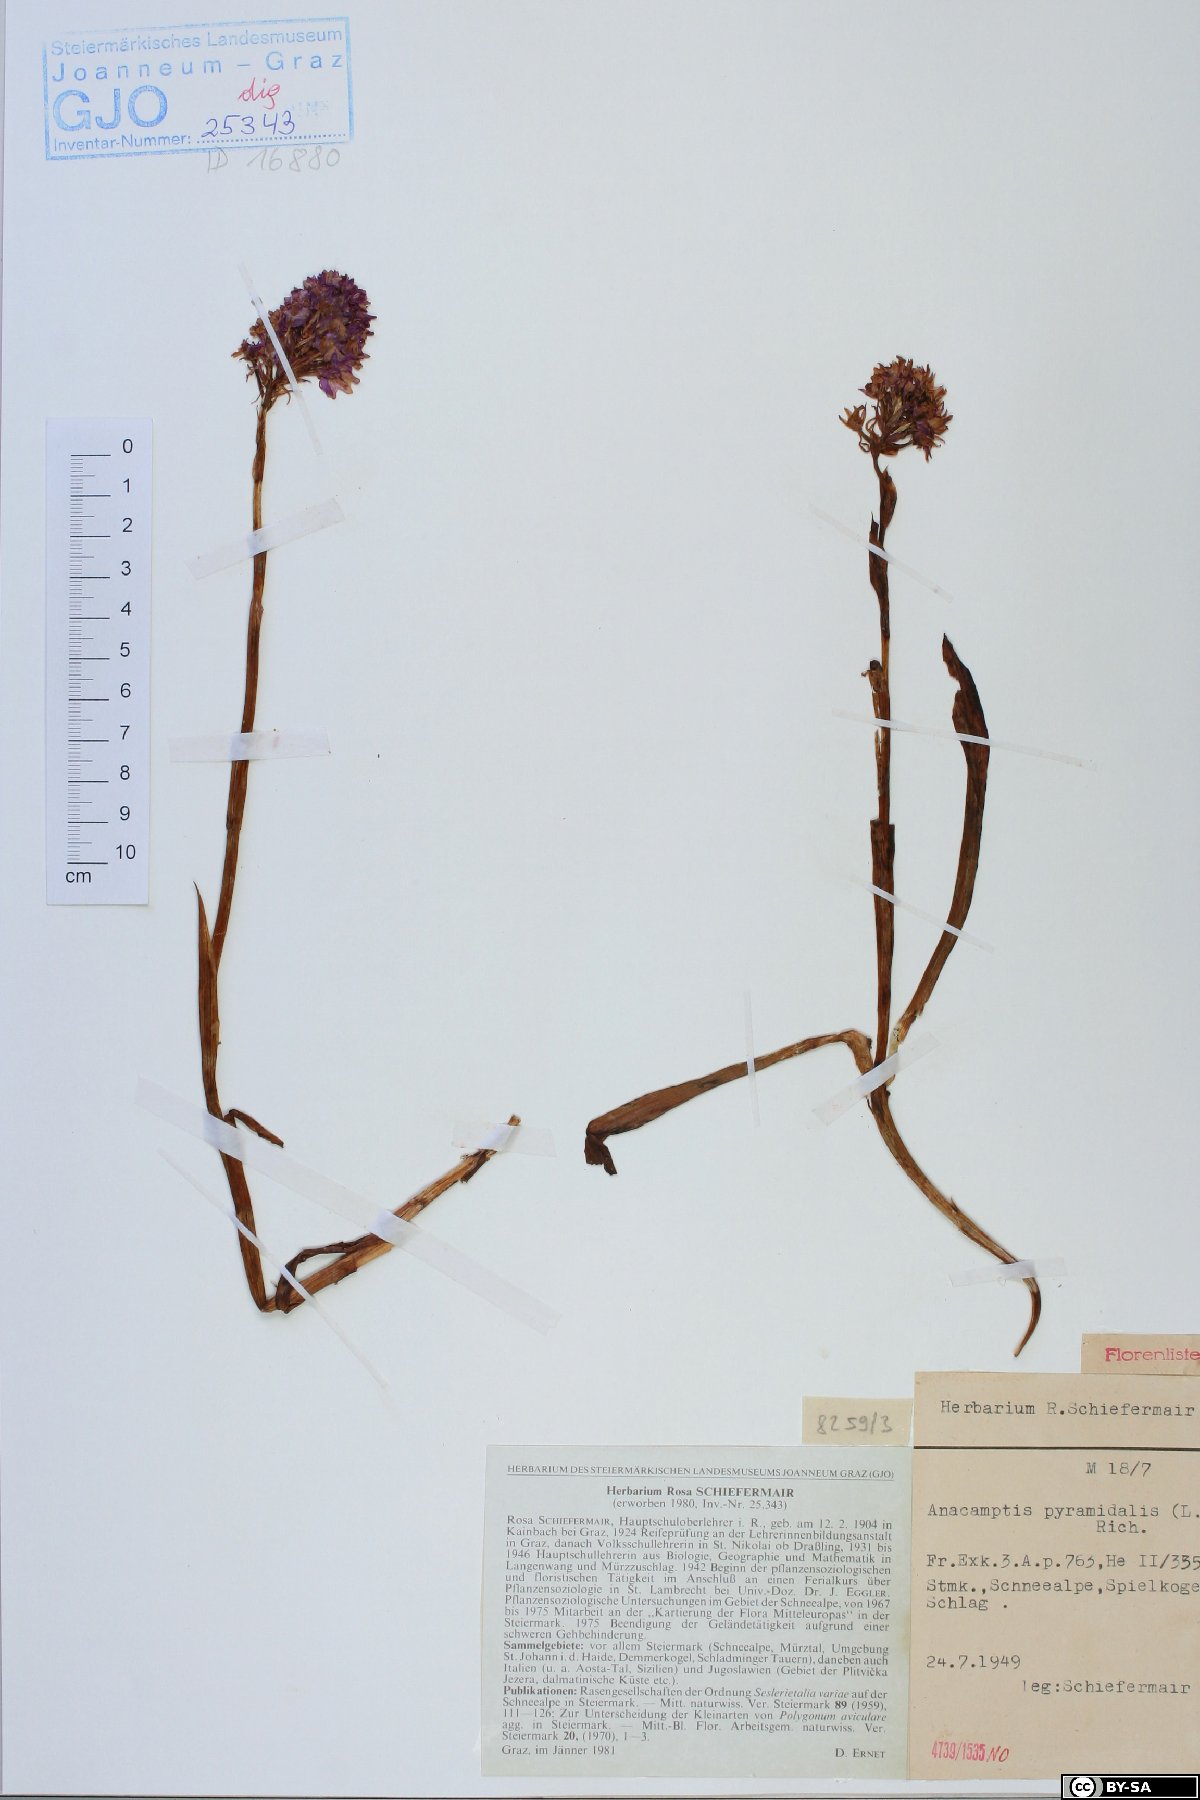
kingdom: Plantae
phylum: Tracheophyta
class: Liliopsida
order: Asparagales
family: Orchidaceae
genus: Anacamptis
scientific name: Anacamptis pyramidalis
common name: Pyramidal orchid
